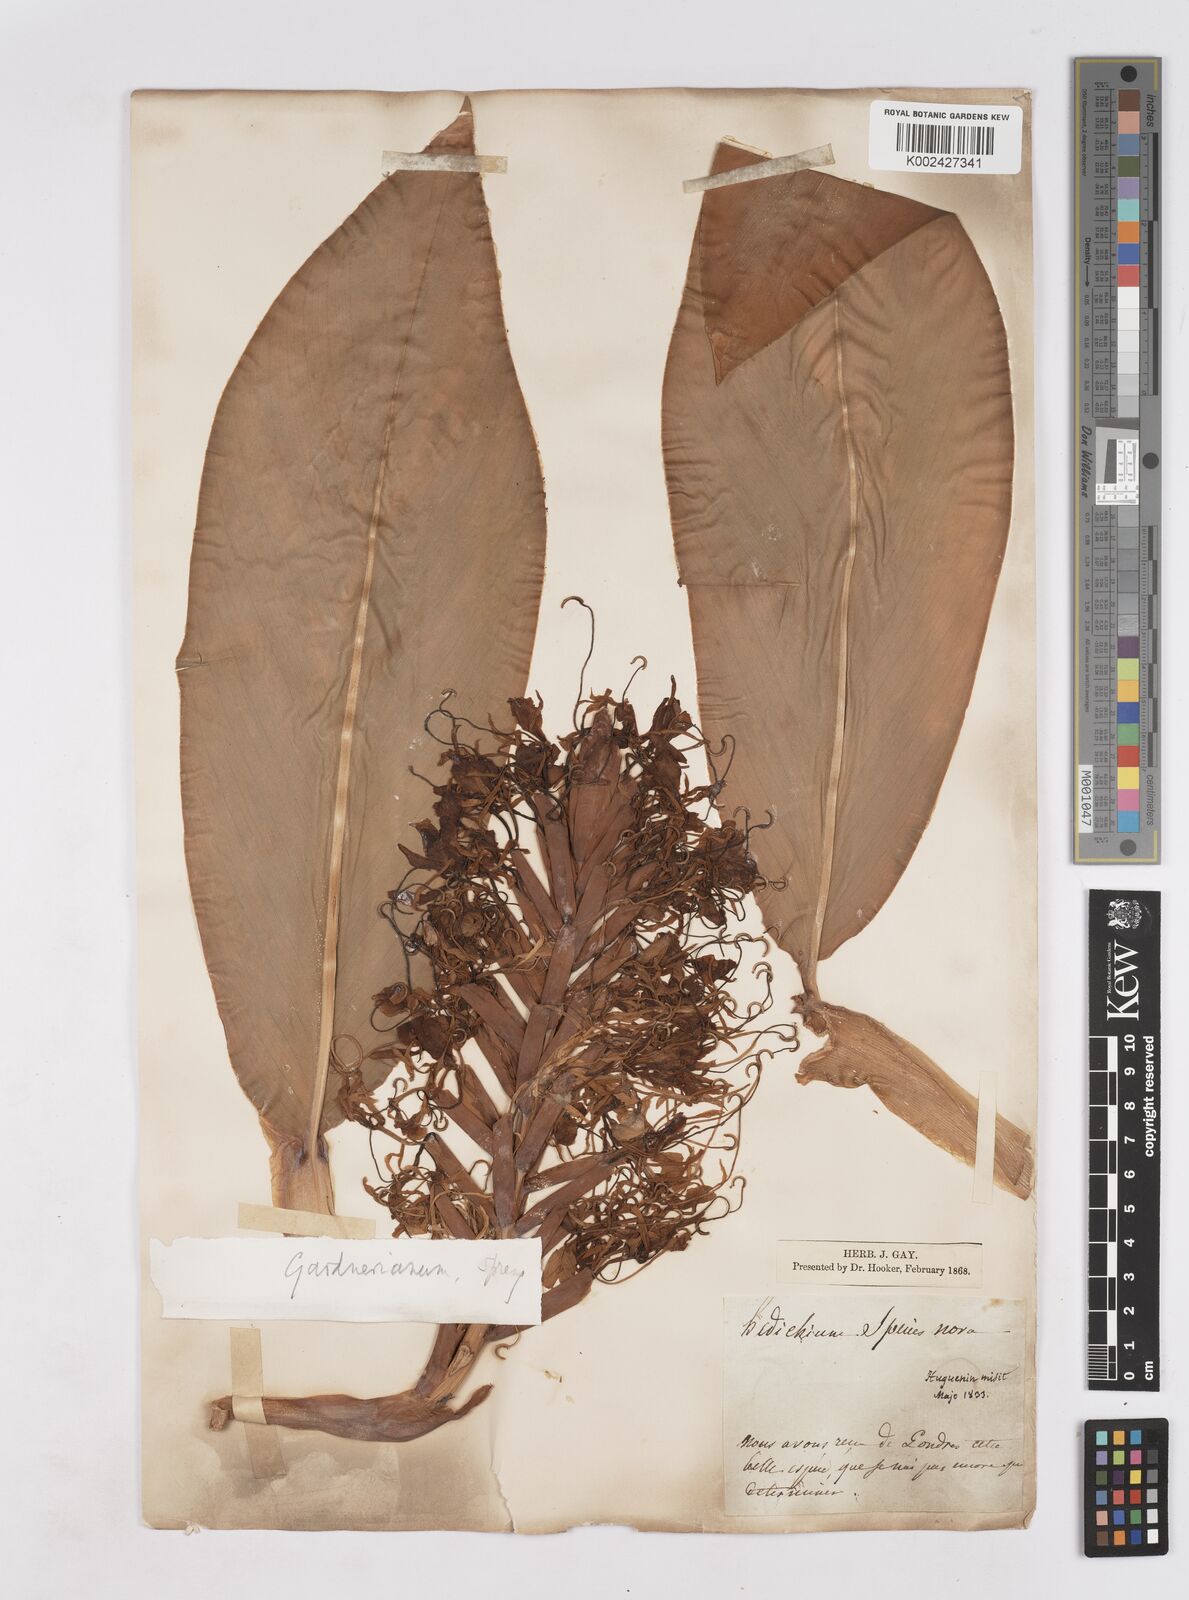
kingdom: Plantae
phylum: Tracheophyta
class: Liliopsida
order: Zingiberales
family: Zingiberaceae
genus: Hedychium
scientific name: Hedychium gardnerianum
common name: Himalayan ginger
